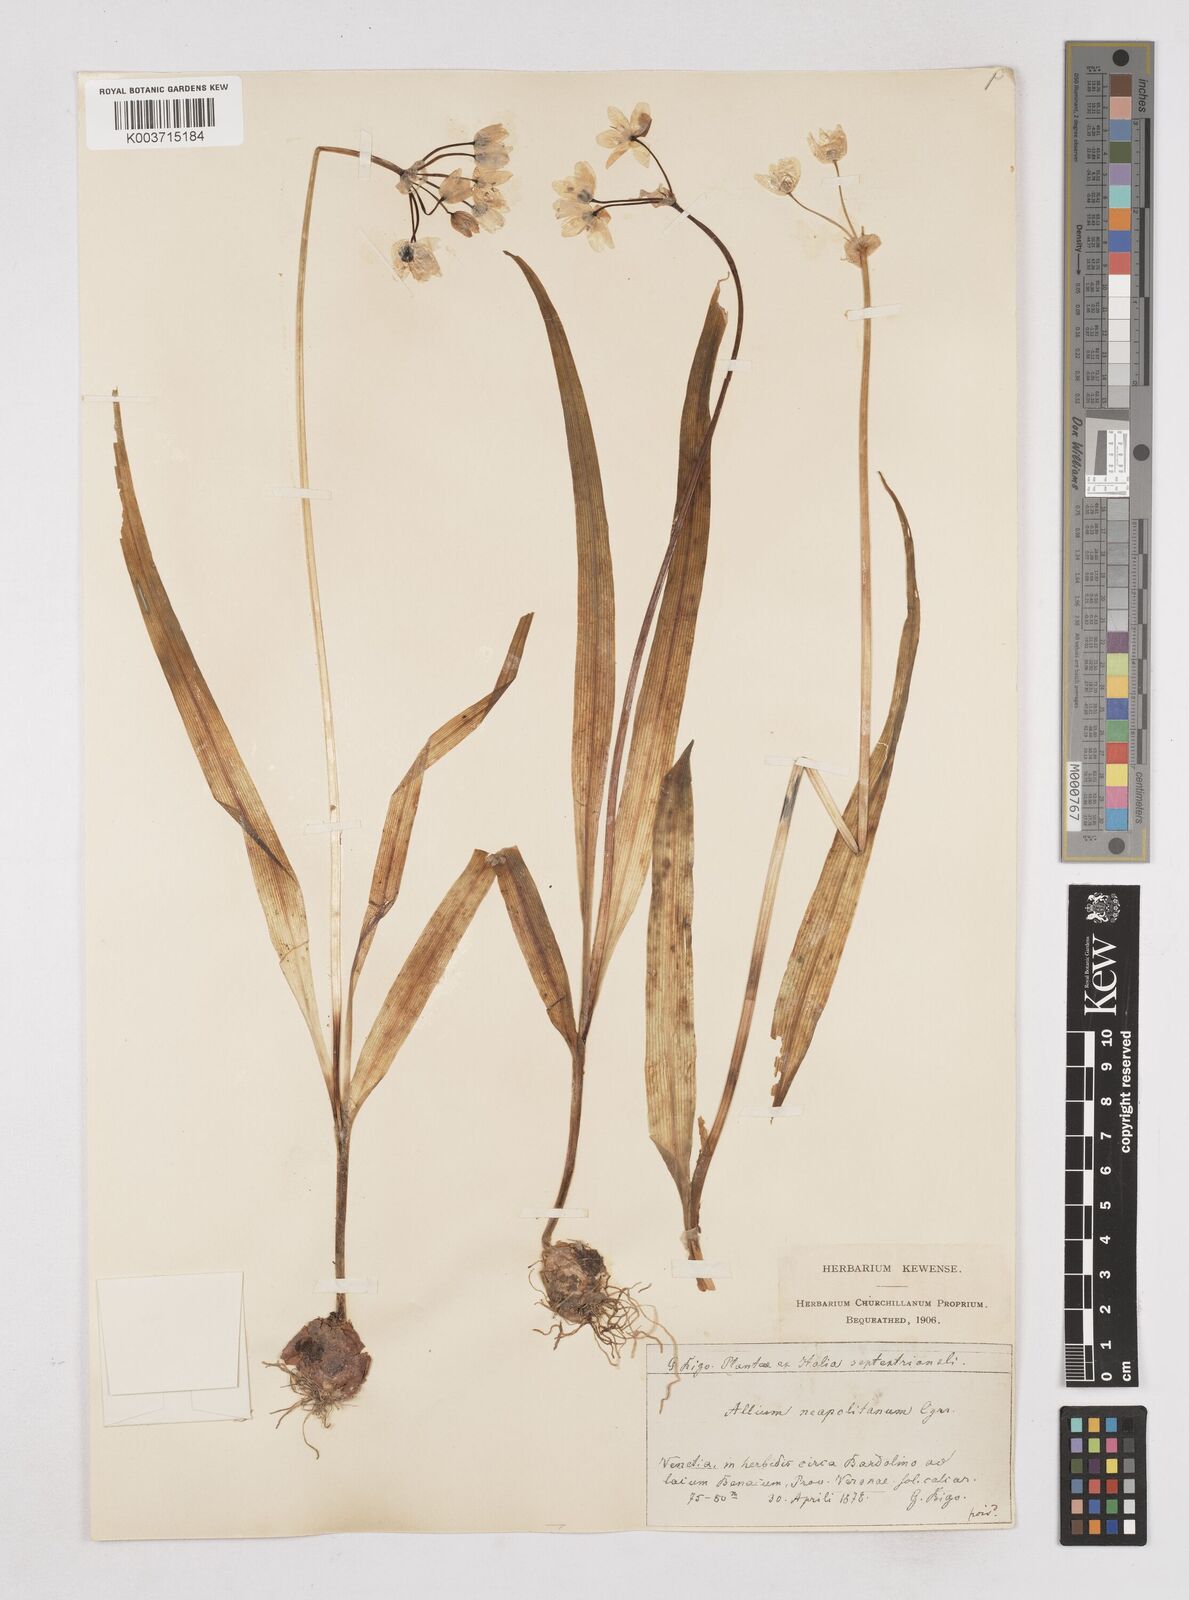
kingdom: Plantae
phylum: Tracheophyta
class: Liliopsida
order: Asparagales
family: Amaryllidaceae
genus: Allium
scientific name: Allium neapolitanum
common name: Neapolitan garlic
